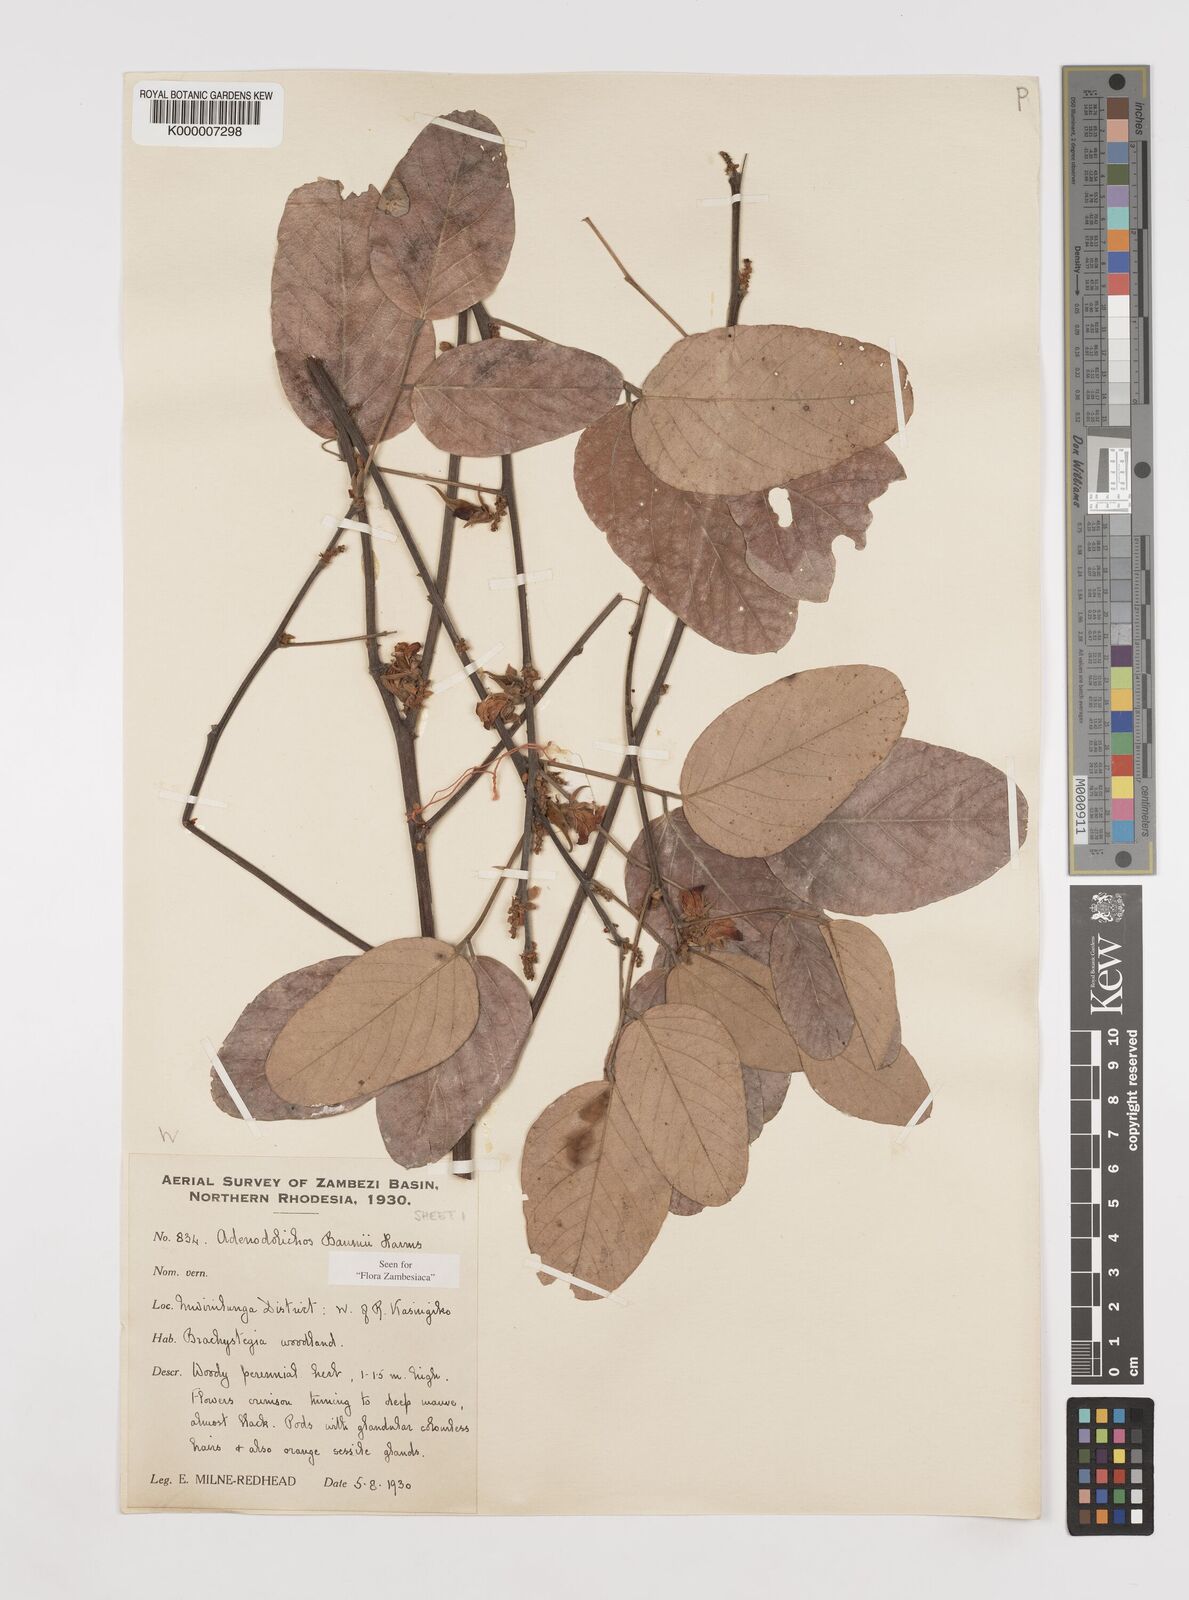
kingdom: Plantae
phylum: Tracheophyta
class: Magnoliopsida
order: Fabales
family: Fabaceae
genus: Adenodolichos
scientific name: Adenodolichos baumii
